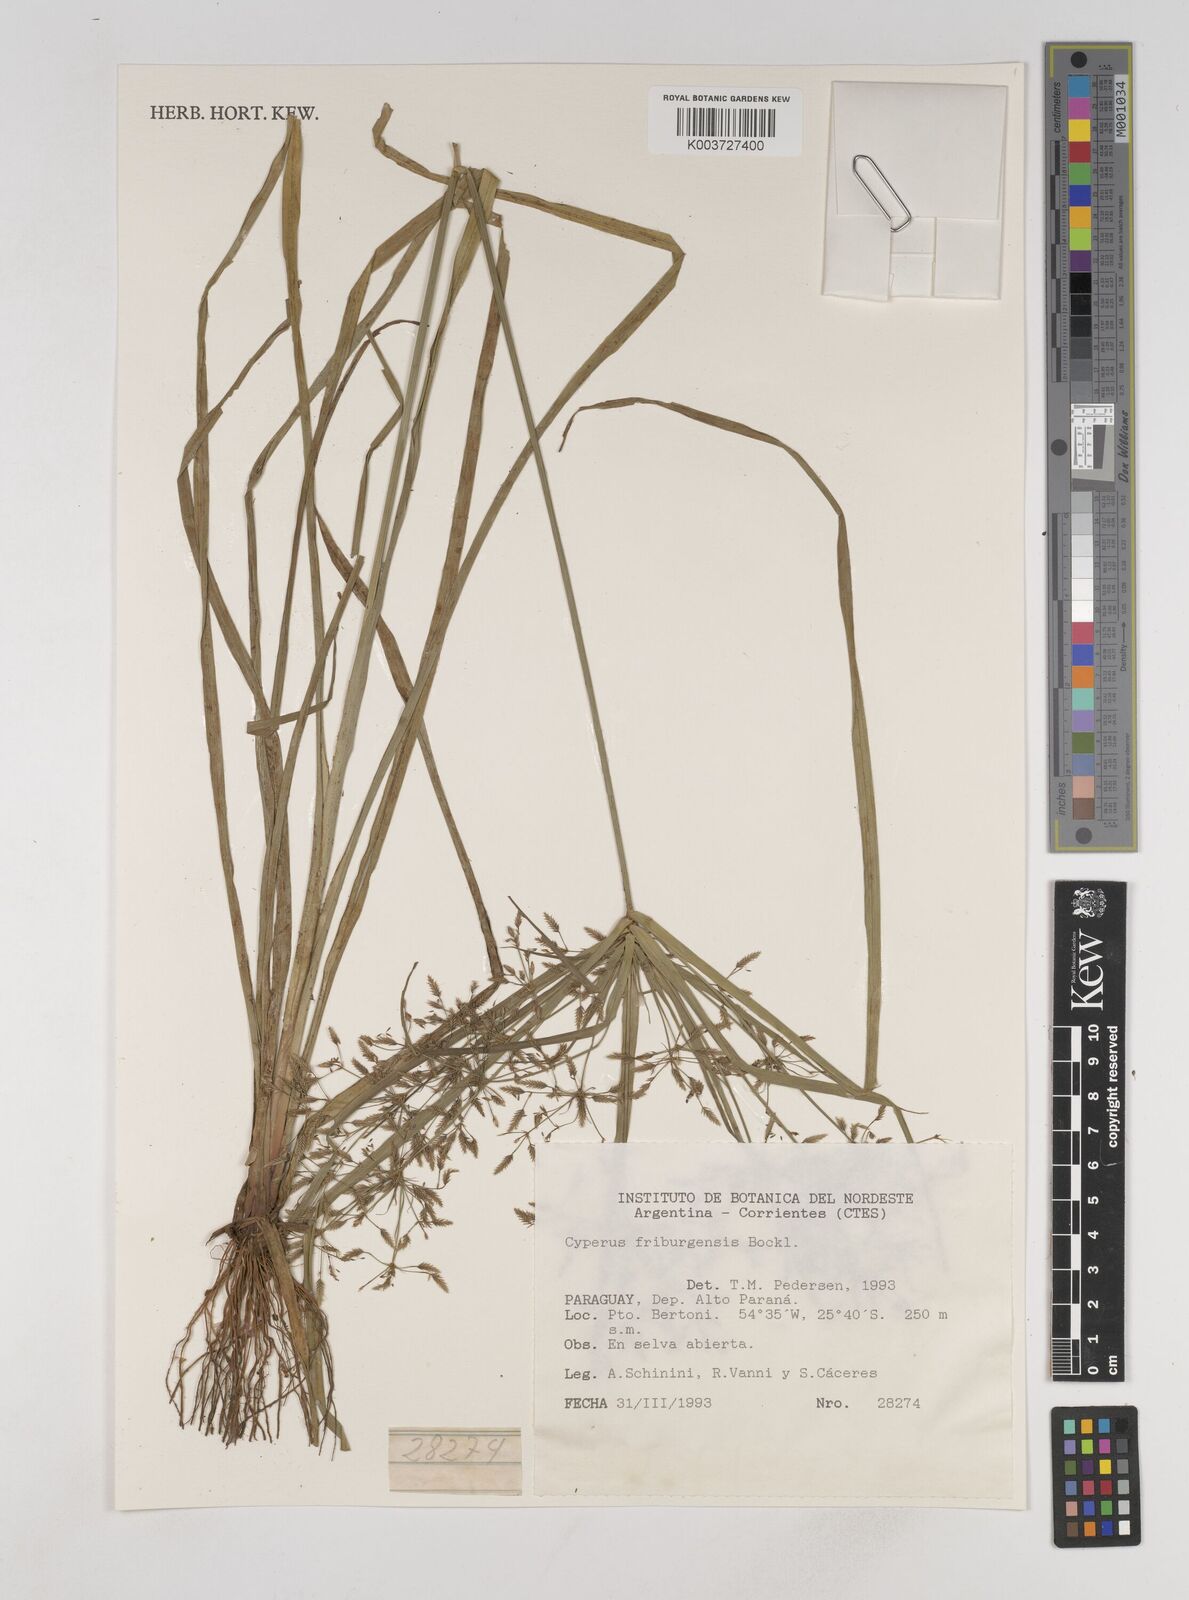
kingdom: Plantae
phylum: Tracheophyta
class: Liliopsida
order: Poales
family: Cyperaceae
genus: Cyperus
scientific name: Cyperus friburgensis
